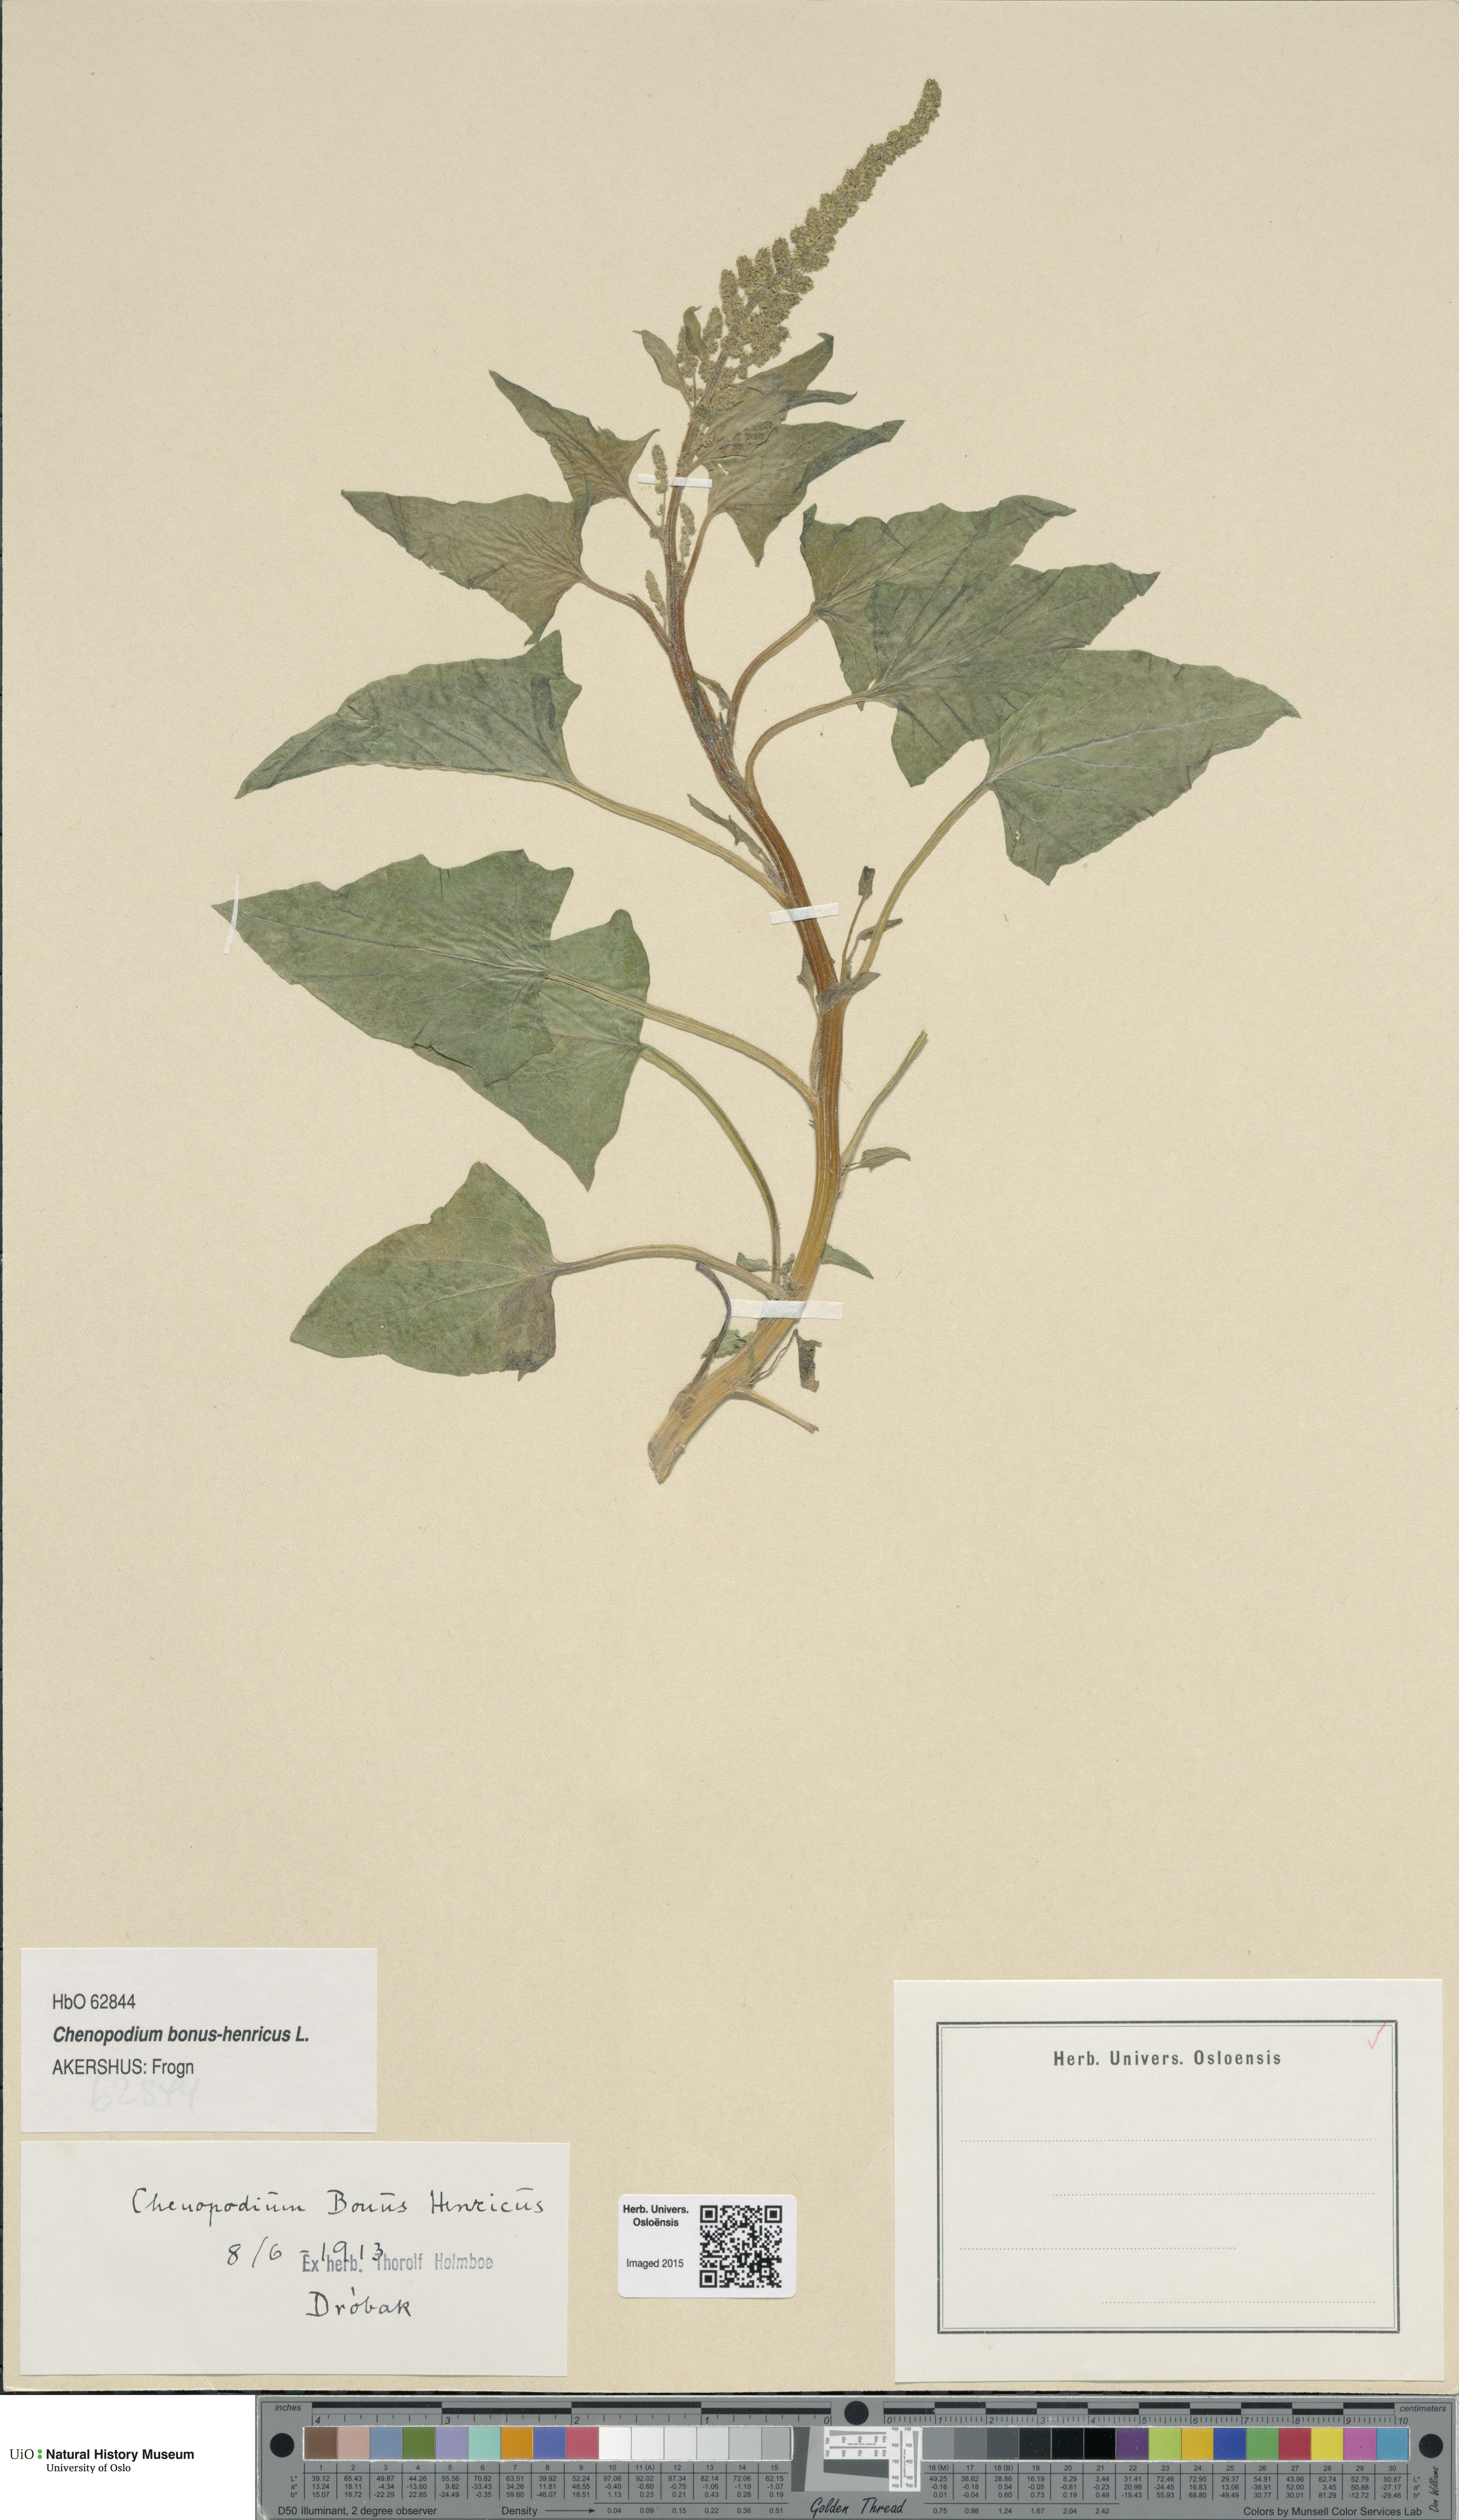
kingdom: Plantae
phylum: Tracheophyta
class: Magnoliopsida
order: Caryophyllales
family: Amaranthaceae
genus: Blitum
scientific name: Blitum bonus-henricus
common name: Good king henry
